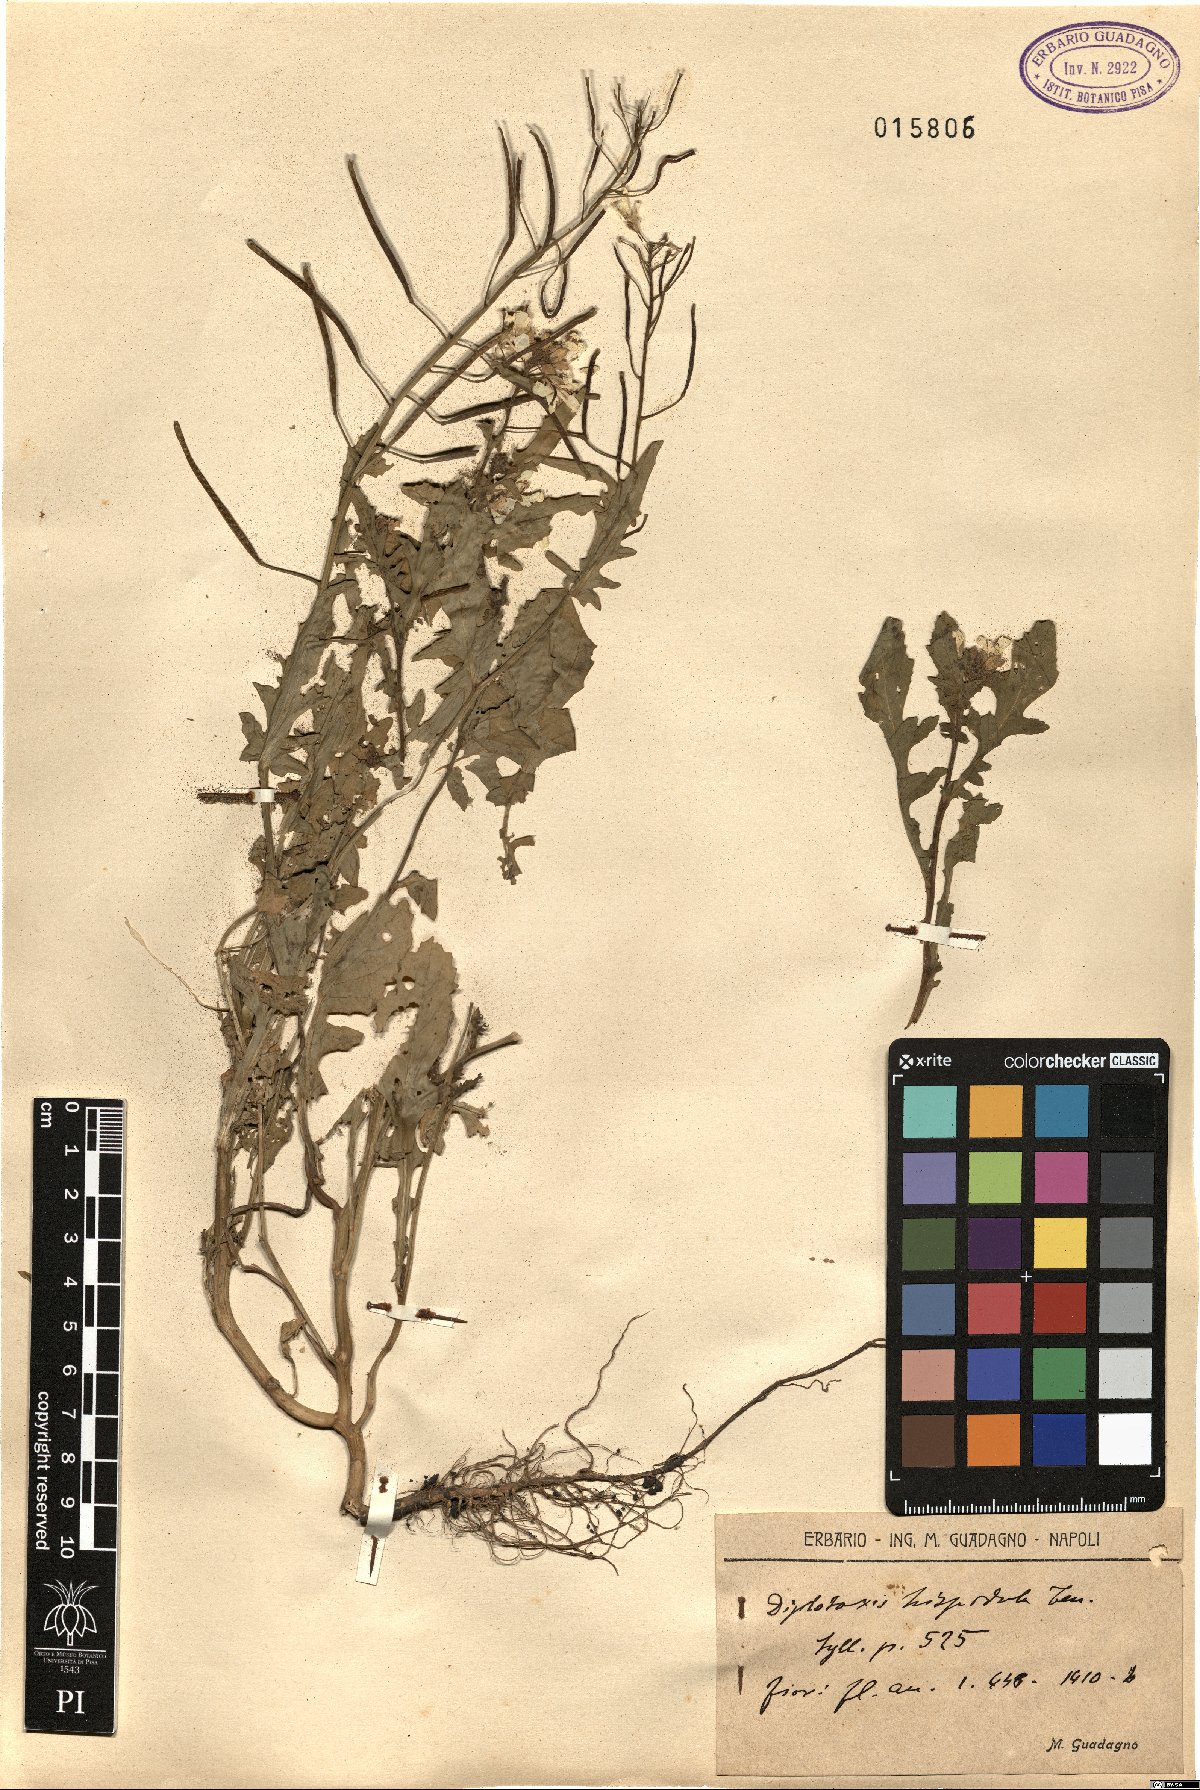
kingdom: Plantae
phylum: Tracheophyta
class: Magnoliopsida
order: Brassicales
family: Brassicaceae
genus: Diplotaxis
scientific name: Diplotaxis erucoides
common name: White rocket
